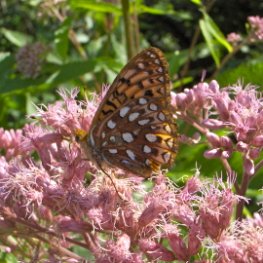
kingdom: Animalia
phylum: Arthropoda
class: Insecta
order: Lepidoptera
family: Nymphalidae
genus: Speyeria
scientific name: Speyeria atlantis
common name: Atlantis Fritillary
